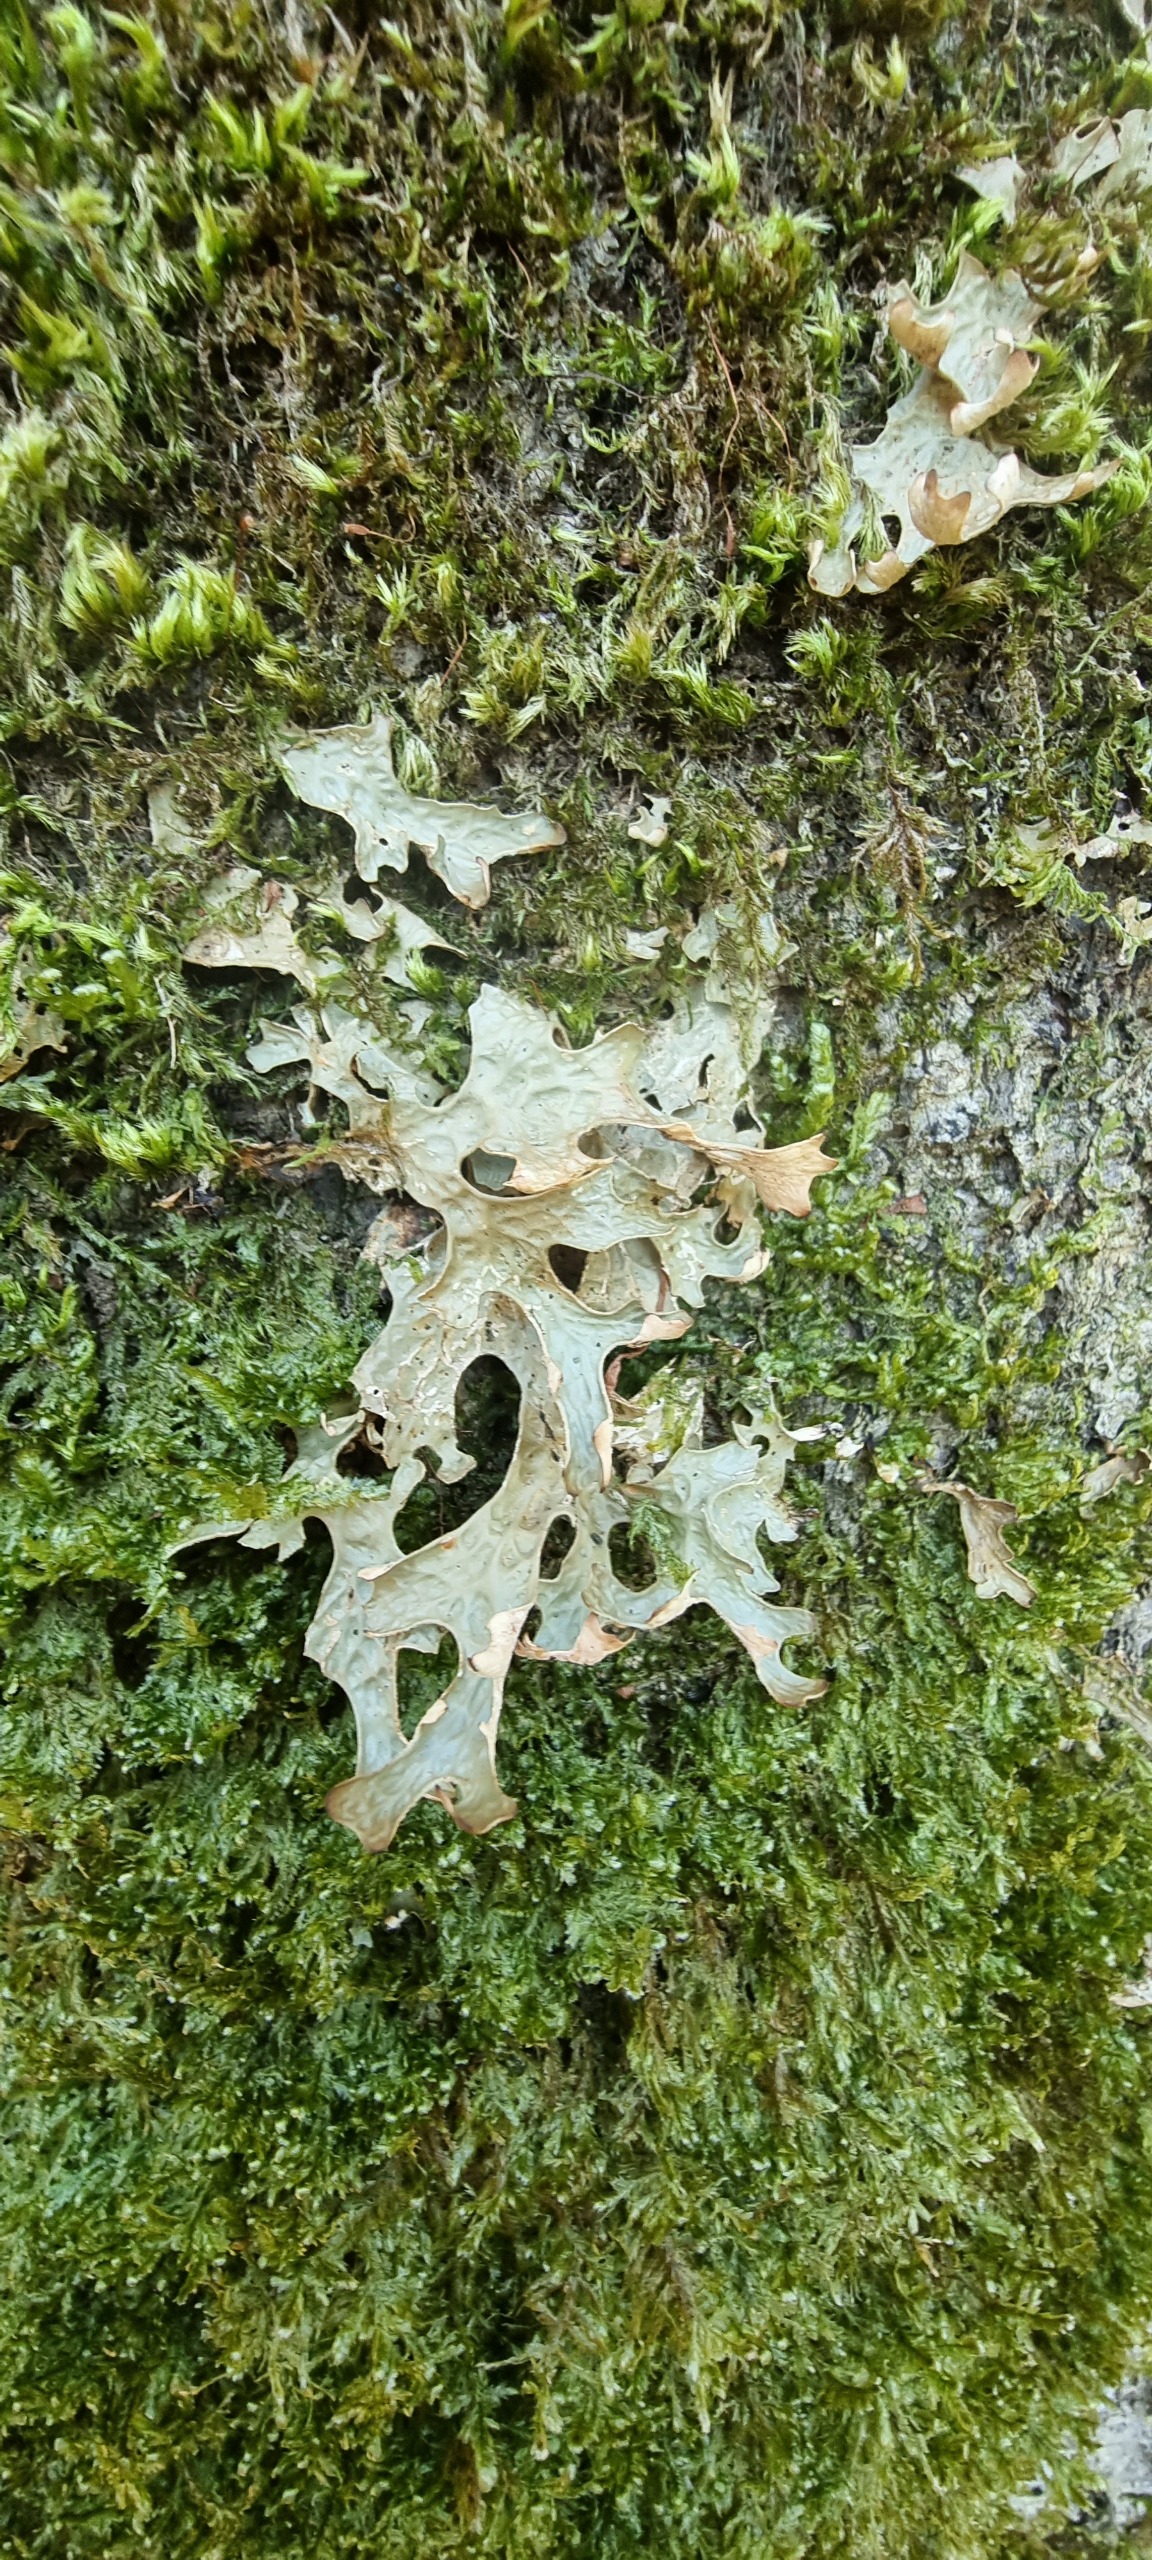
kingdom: Fungi
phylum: Ascomycota
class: Lecanoromycetes
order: Peltigerales
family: Lobariaceae
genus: Lobaria
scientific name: Lobaria pulmonaria
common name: Almindelig lungelav
